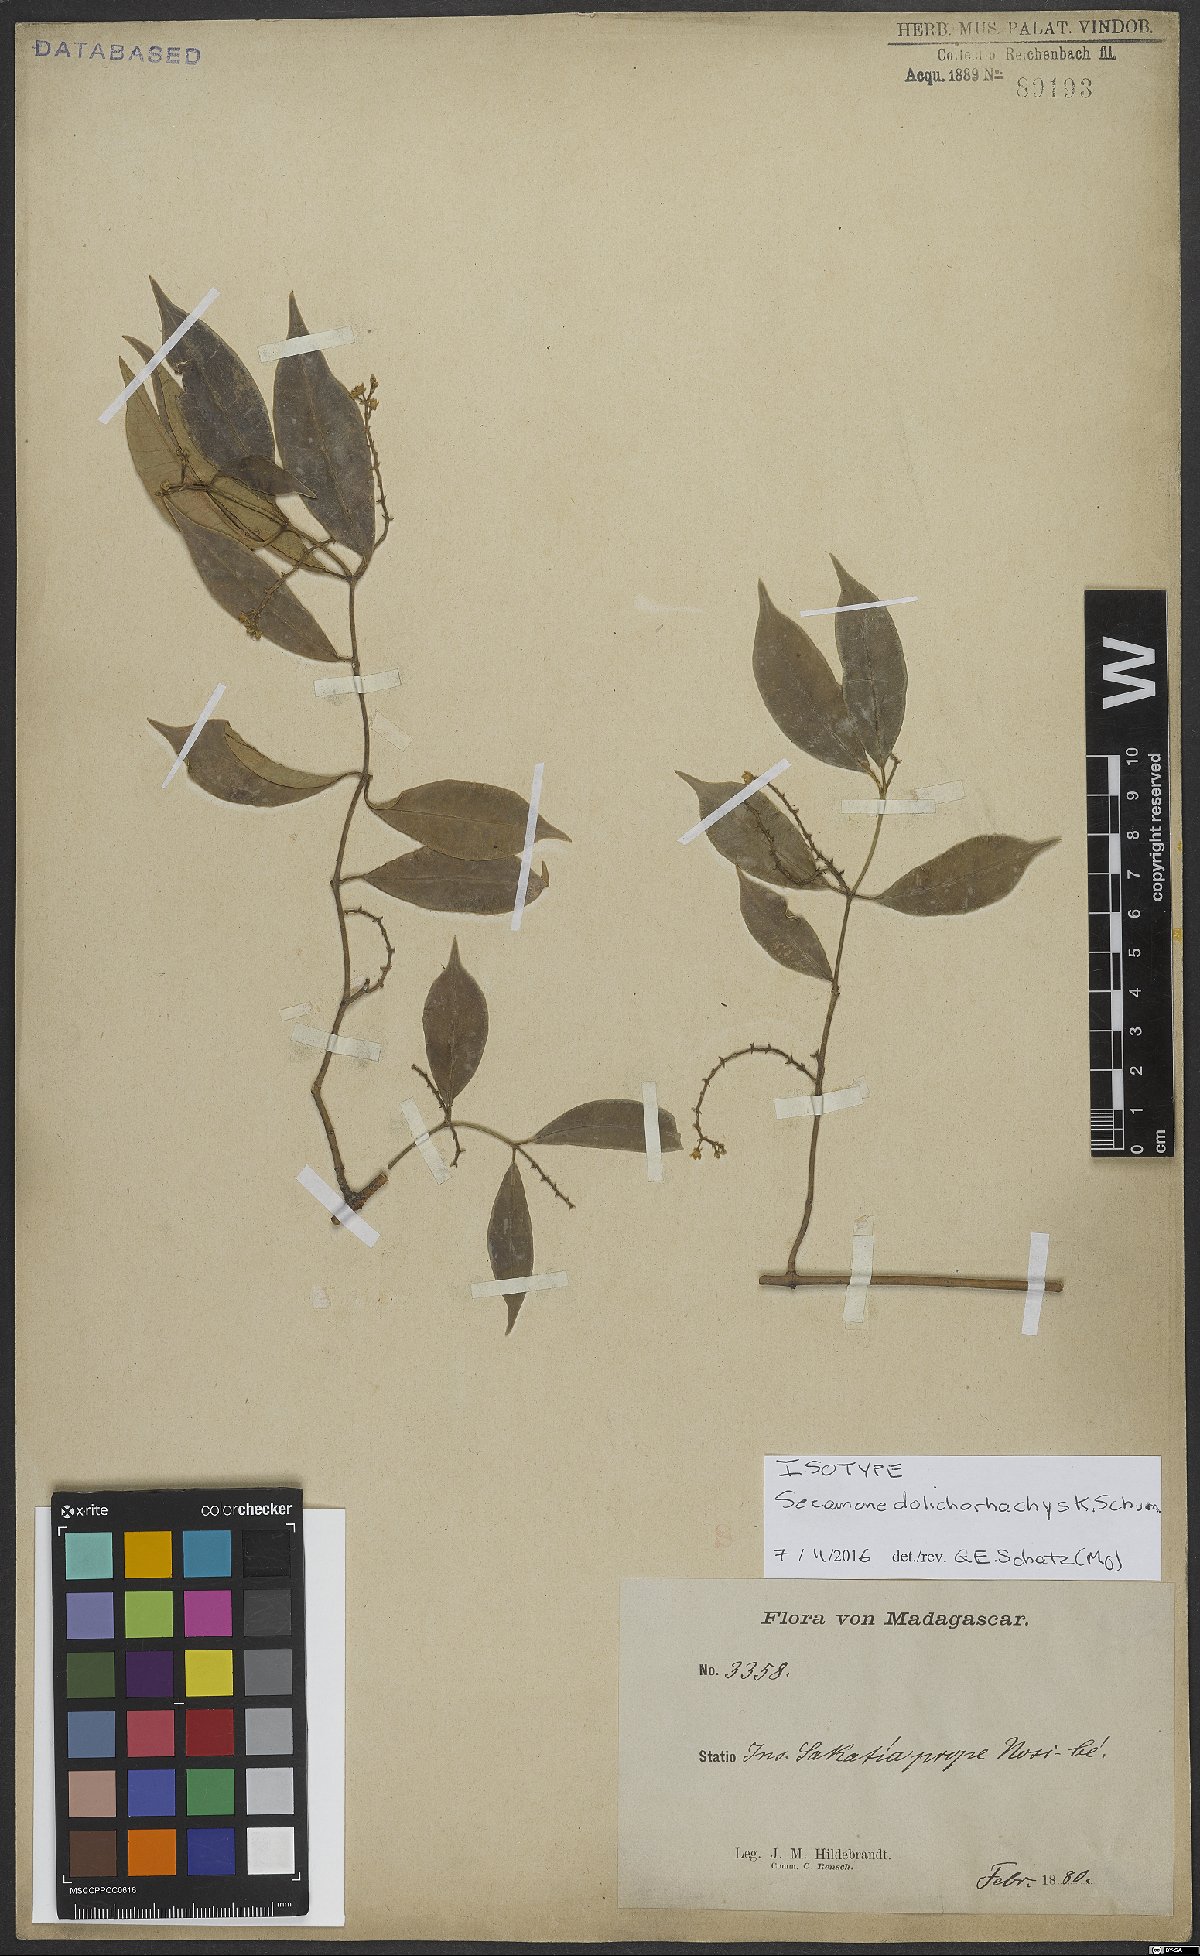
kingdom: Plantae
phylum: Tracheophyta
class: Magnoliopsida
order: Gentianales
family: Apocynaceae
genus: Secamone
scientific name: Secamone dolichorhachys
